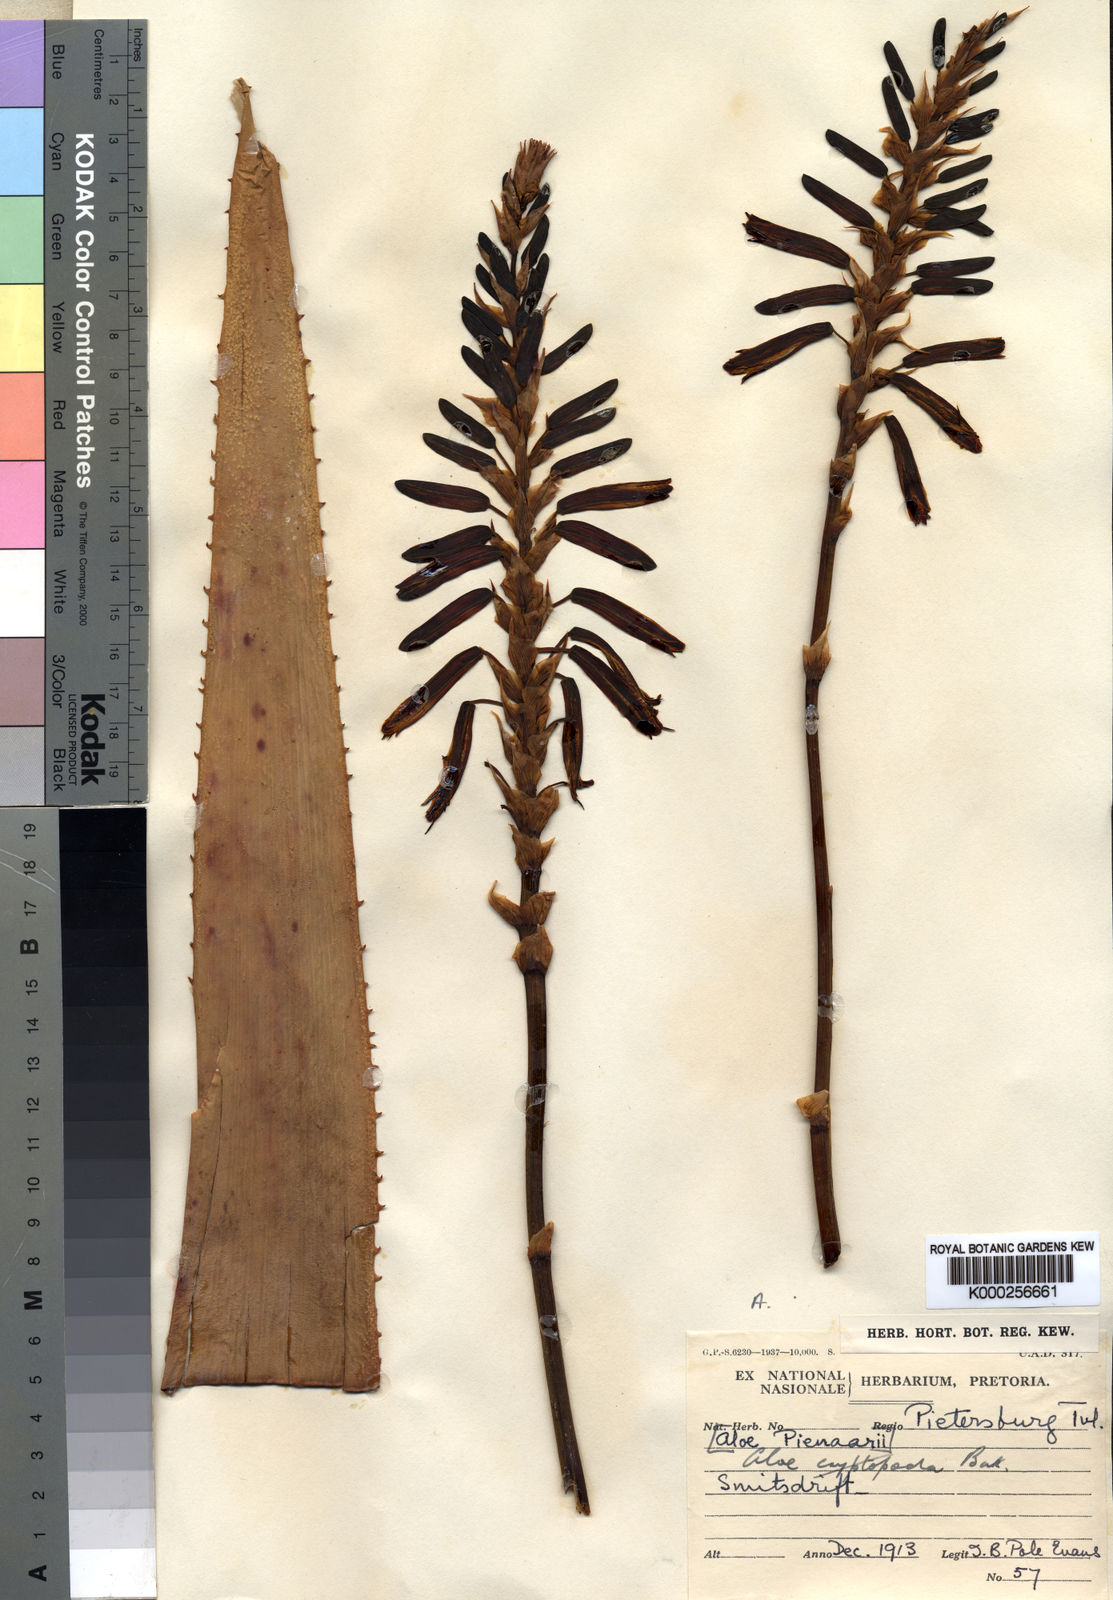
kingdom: Plantae
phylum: Tracheophyta
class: Liliopsida
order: Asparagales
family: Asphodelaceae
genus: Aloe
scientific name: Aloe cryptopoda
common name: Dr. kirk's aloe
